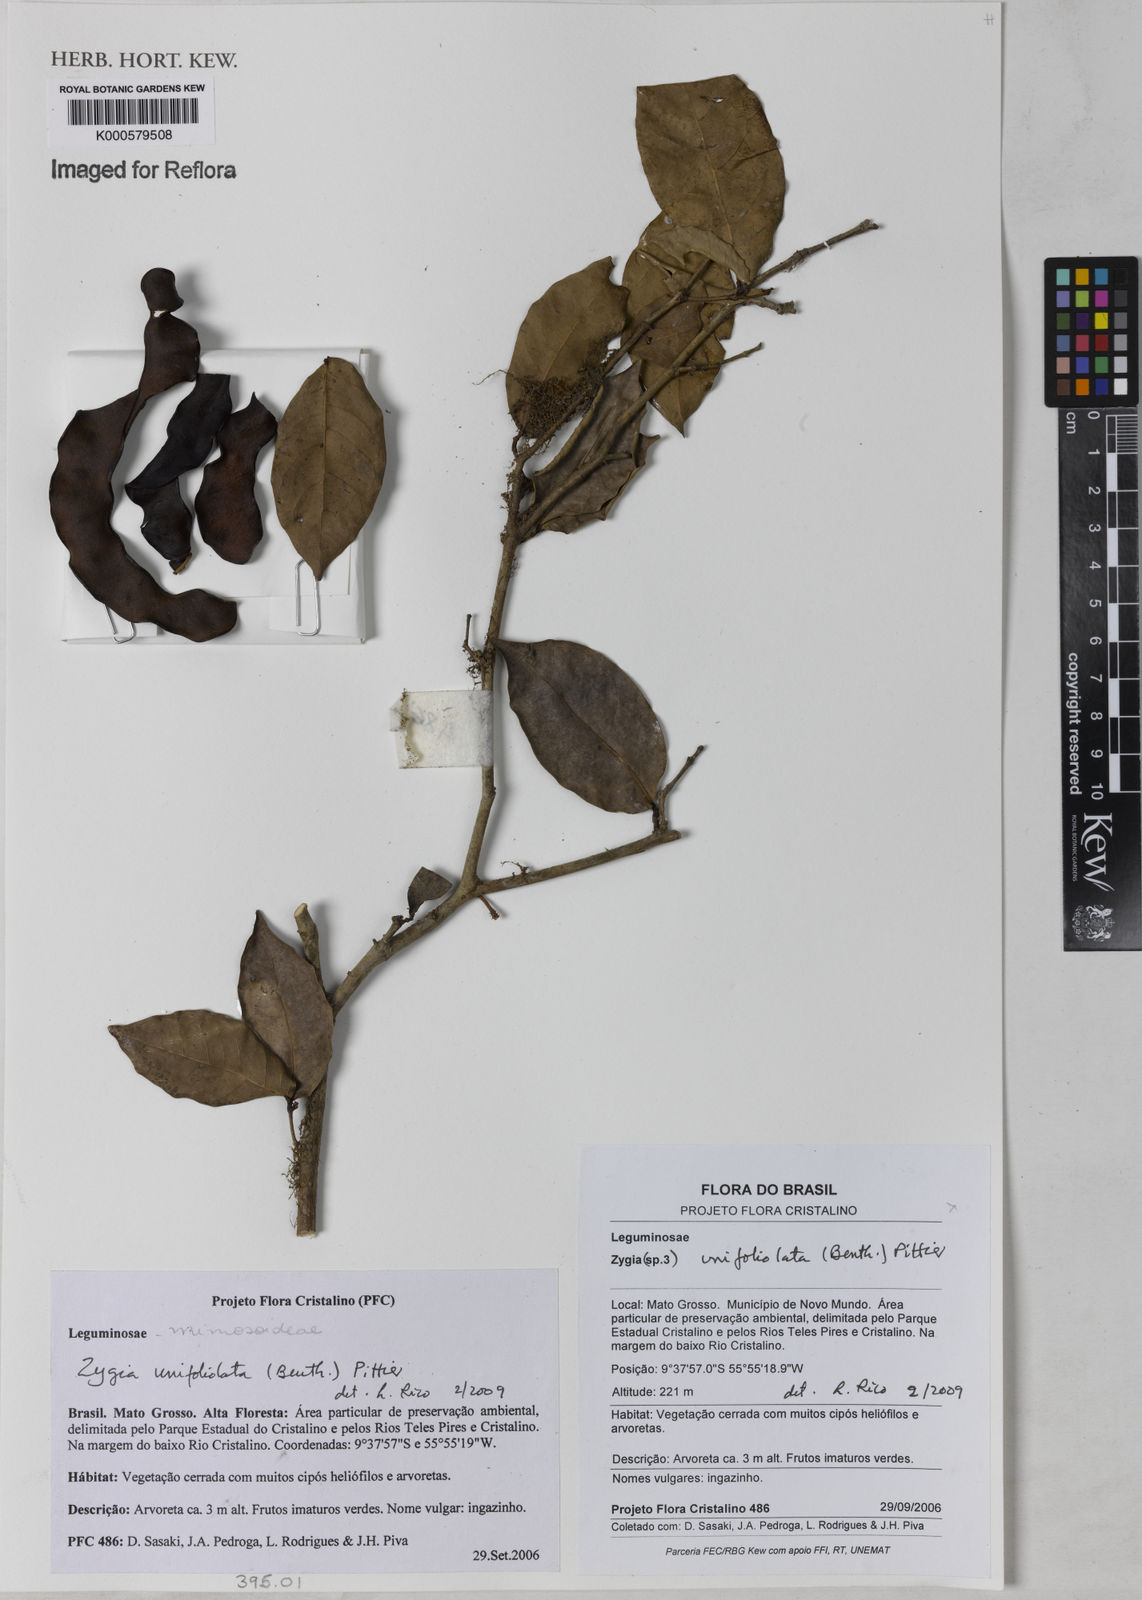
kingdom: Plantae
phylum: Tracheophyta
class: Magnoliopsida
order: Fabales
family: Fabaceae
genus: Zygia
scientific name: Zygia unifoliolata
